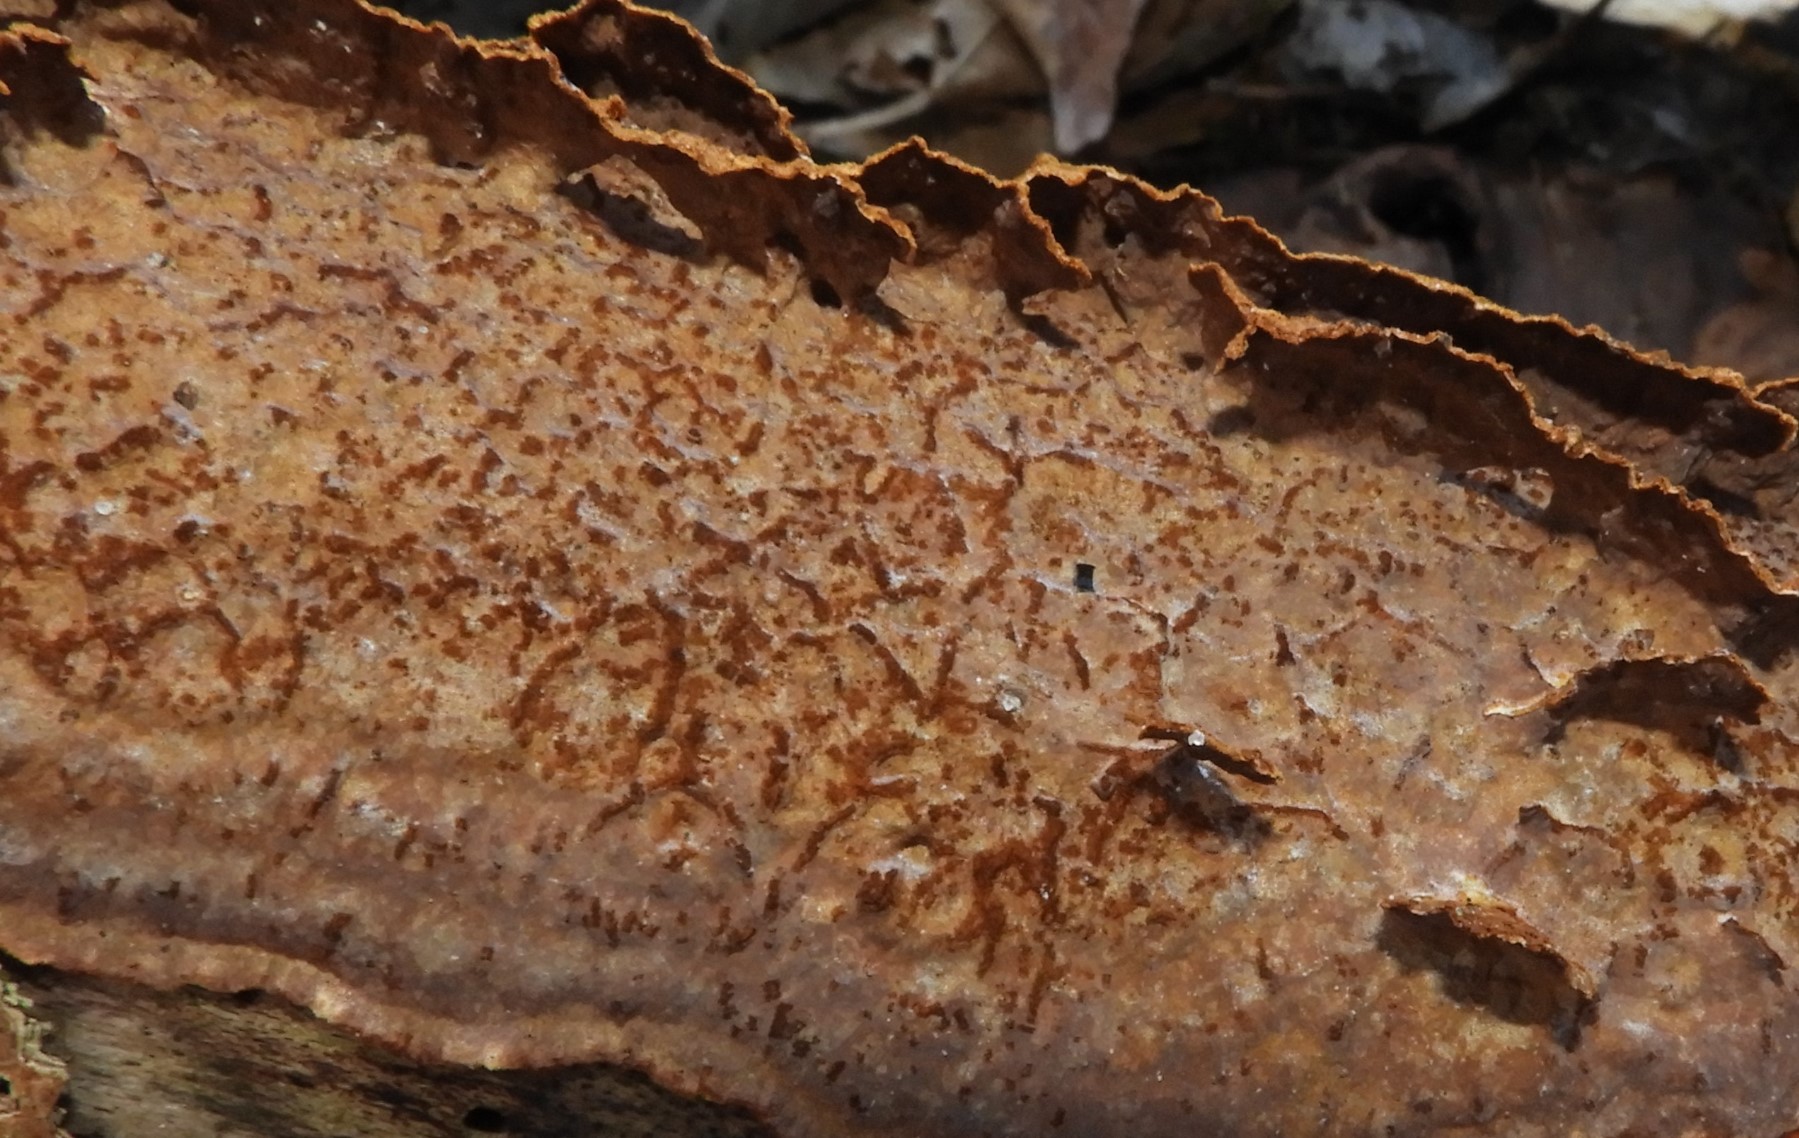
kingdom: Fungi
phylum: Basidiomycota
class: Agaricomycetes
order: Hymenochaetales
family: Hymenochaetaceae
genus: Hydnoporia
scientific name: Hydnoporia tabacina
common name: tobaksbrun ruslædersvamp
